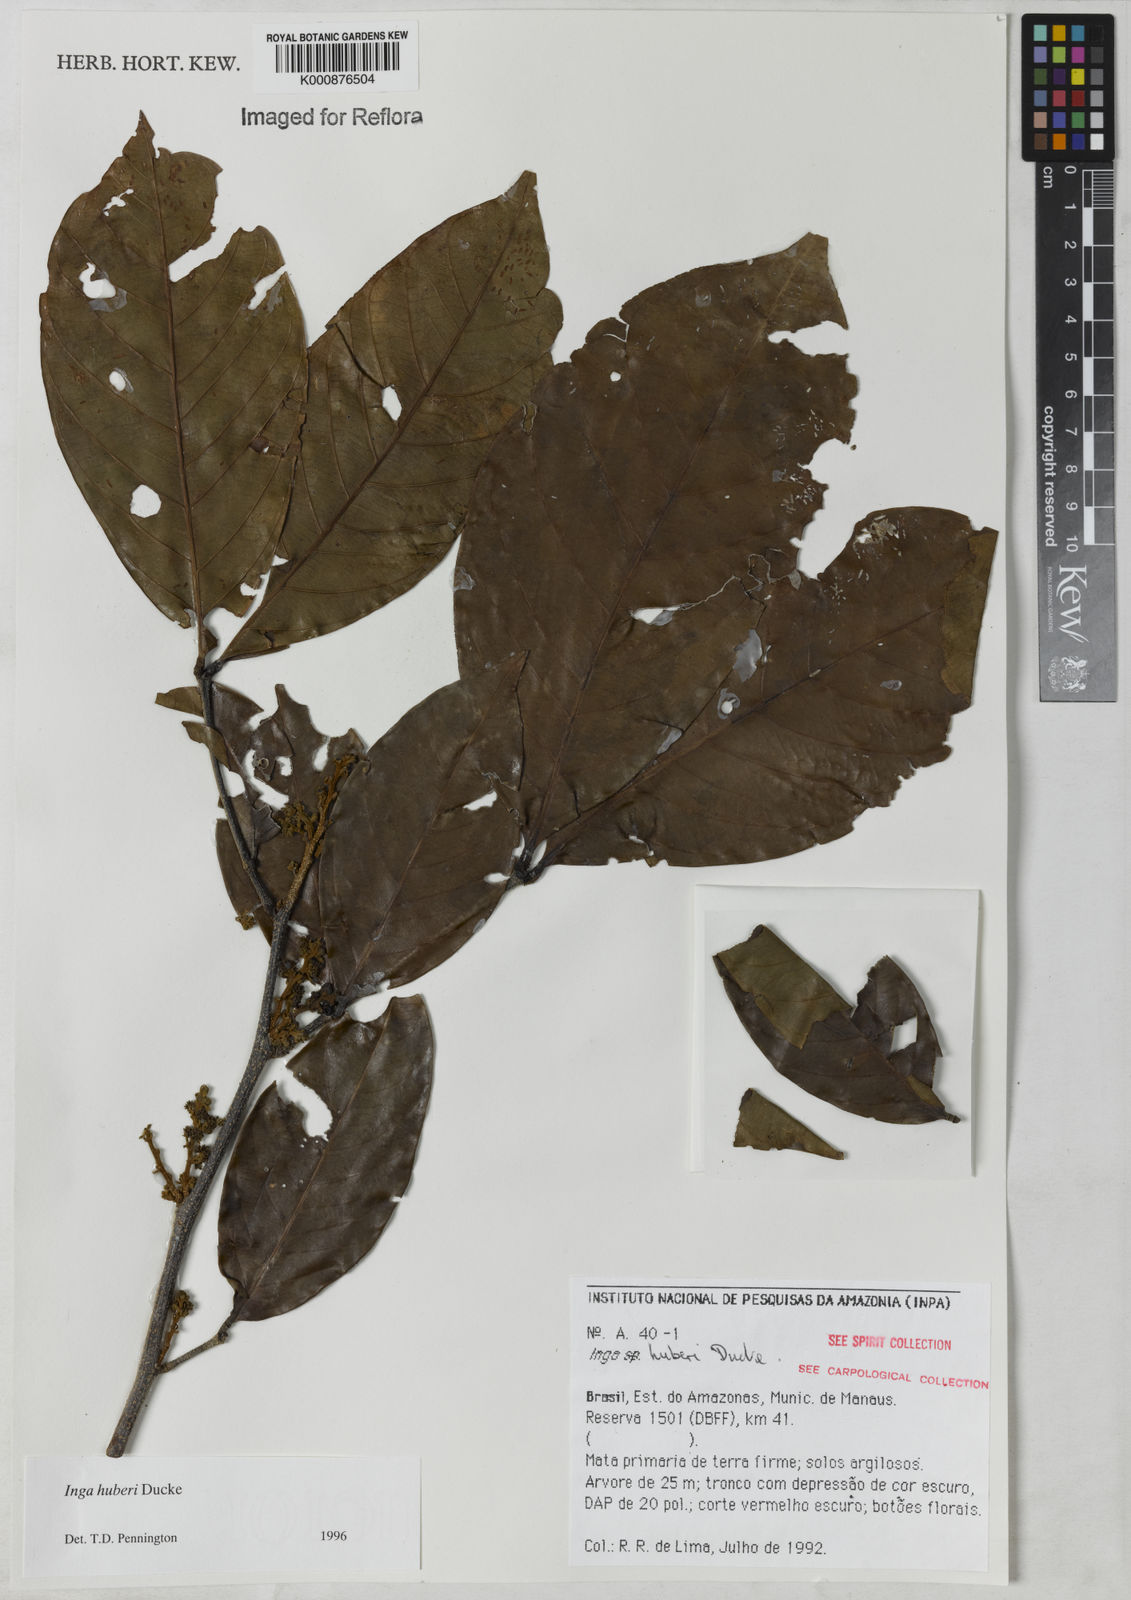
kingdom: Plantae
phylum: Tracheophyta
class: Magnoliopsida
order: Fabales
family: Fabaceae
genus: Inga
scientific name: Inga huberi
